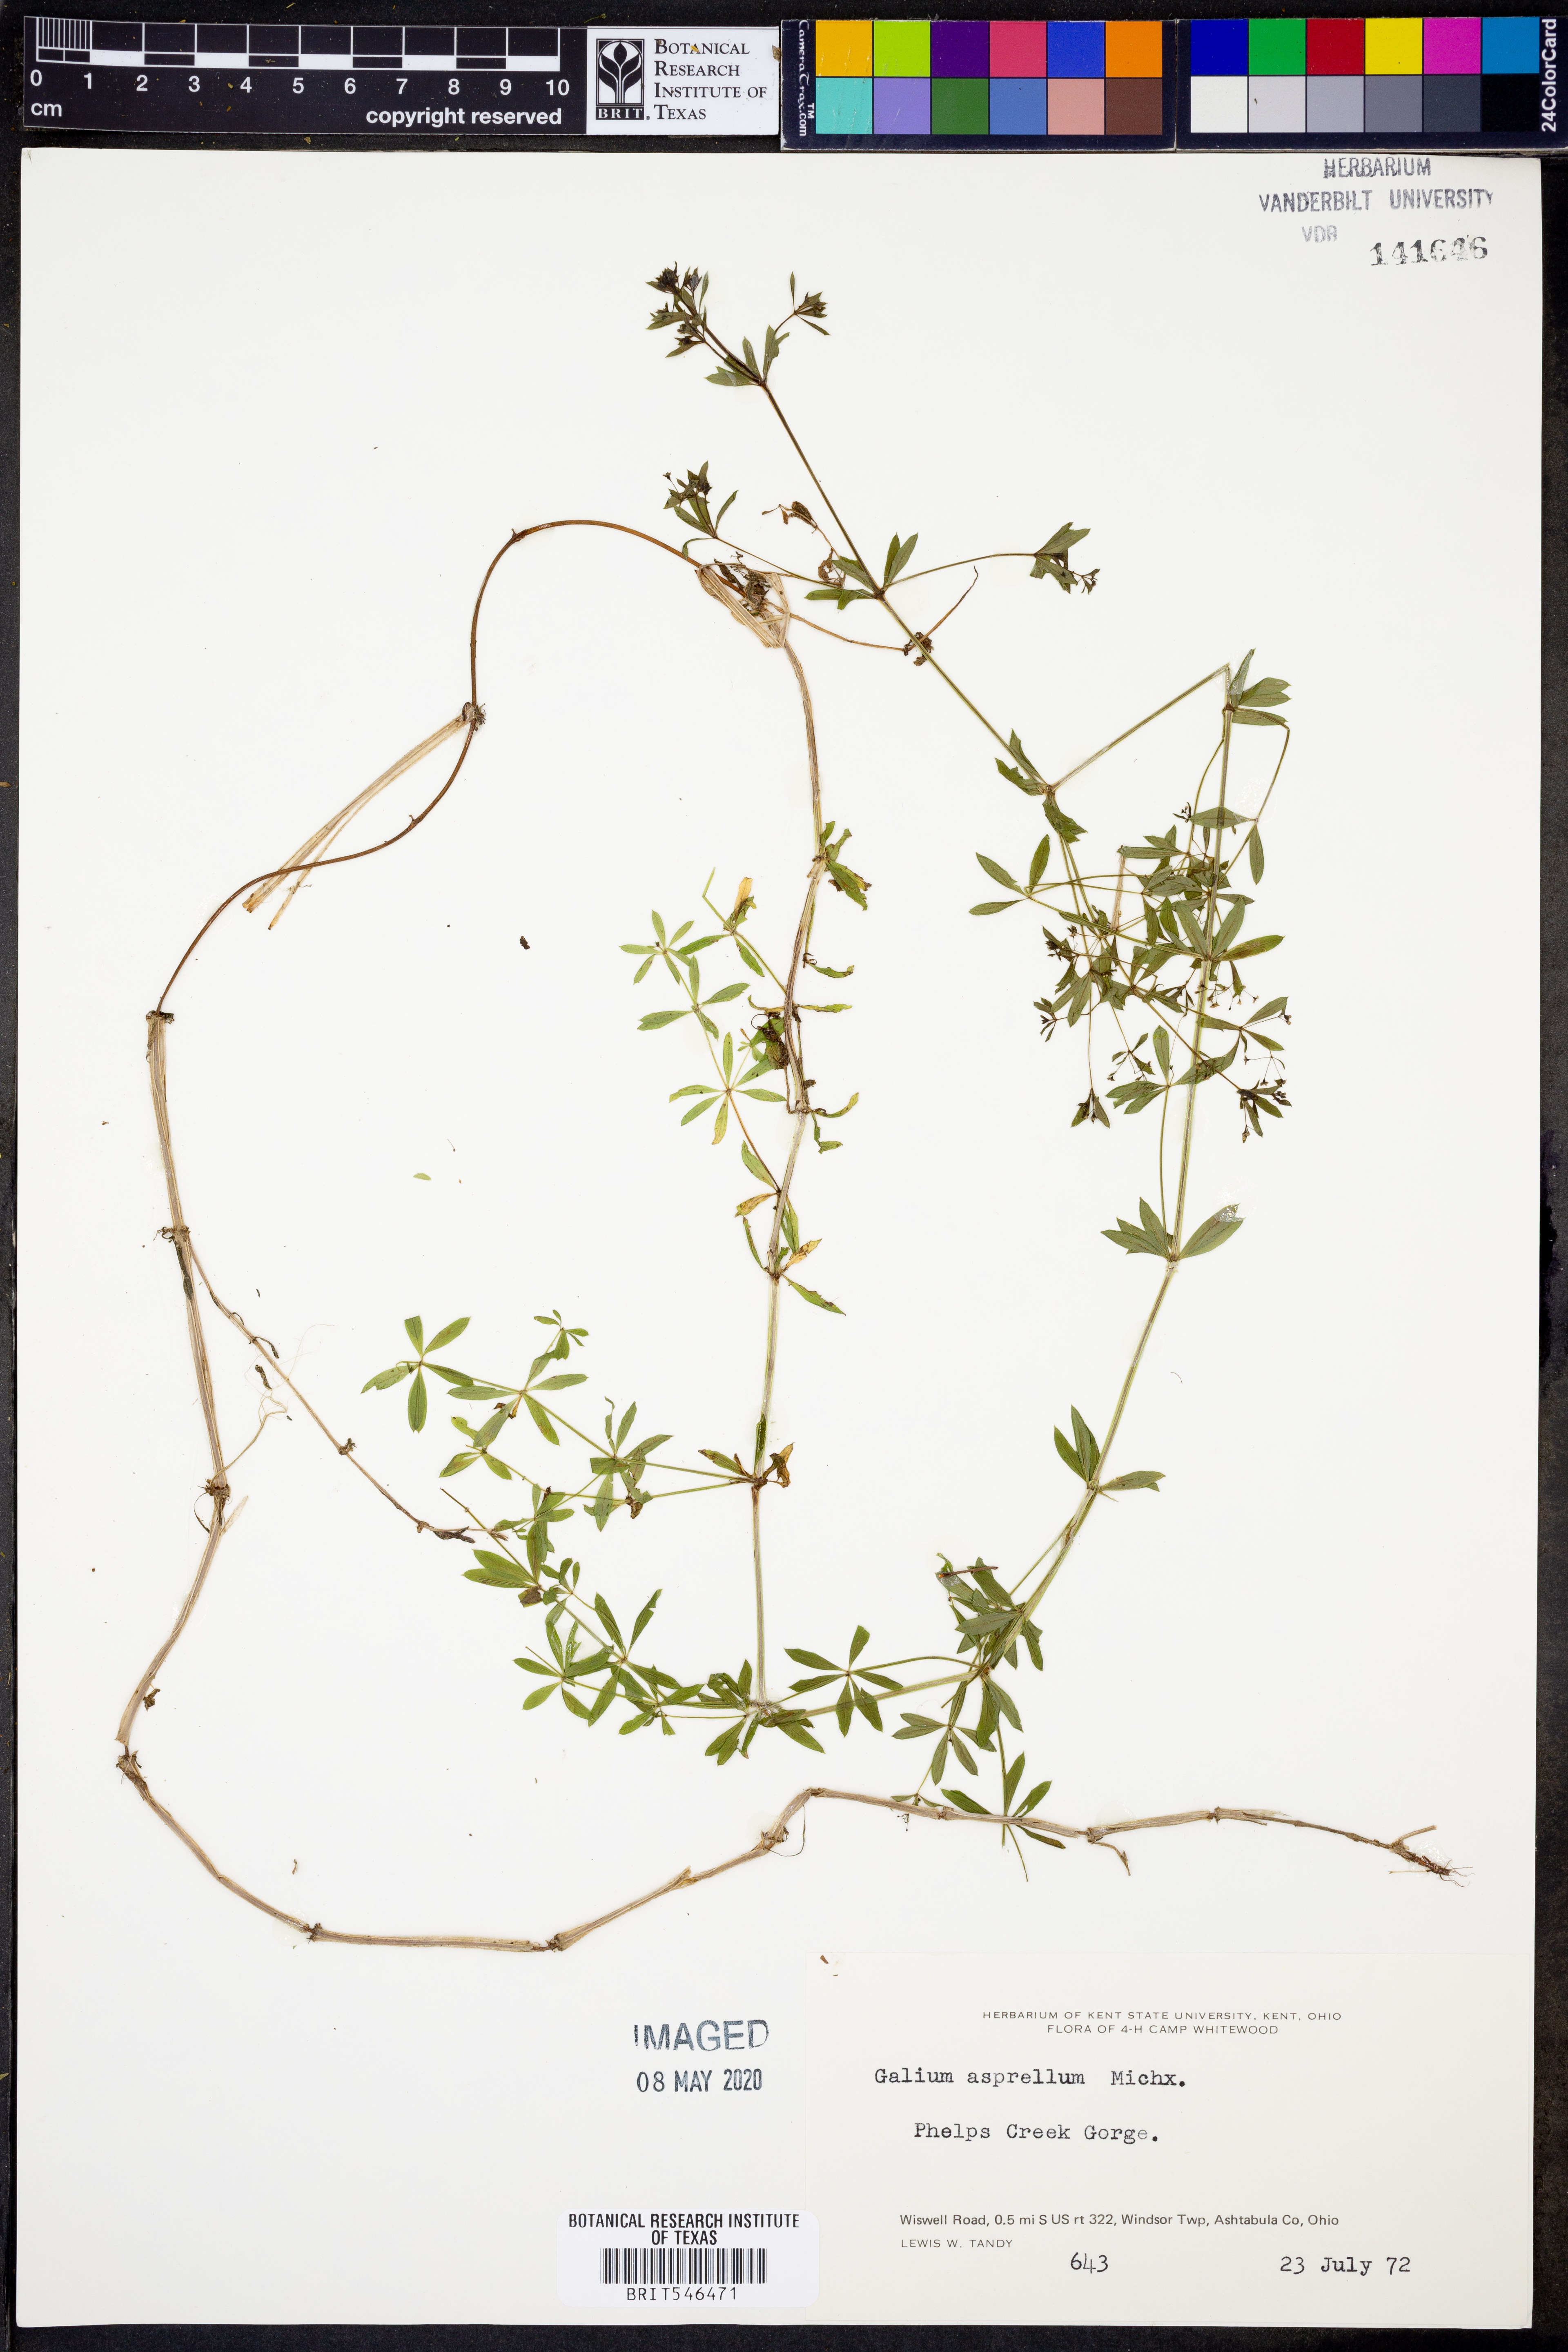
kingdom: Plantae
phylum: Tracheophyta
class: Magnoliopsida
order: Gentianales
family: Rubiaceae
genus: Galium
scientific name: Galium asprellum
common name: Rough bedstraw
